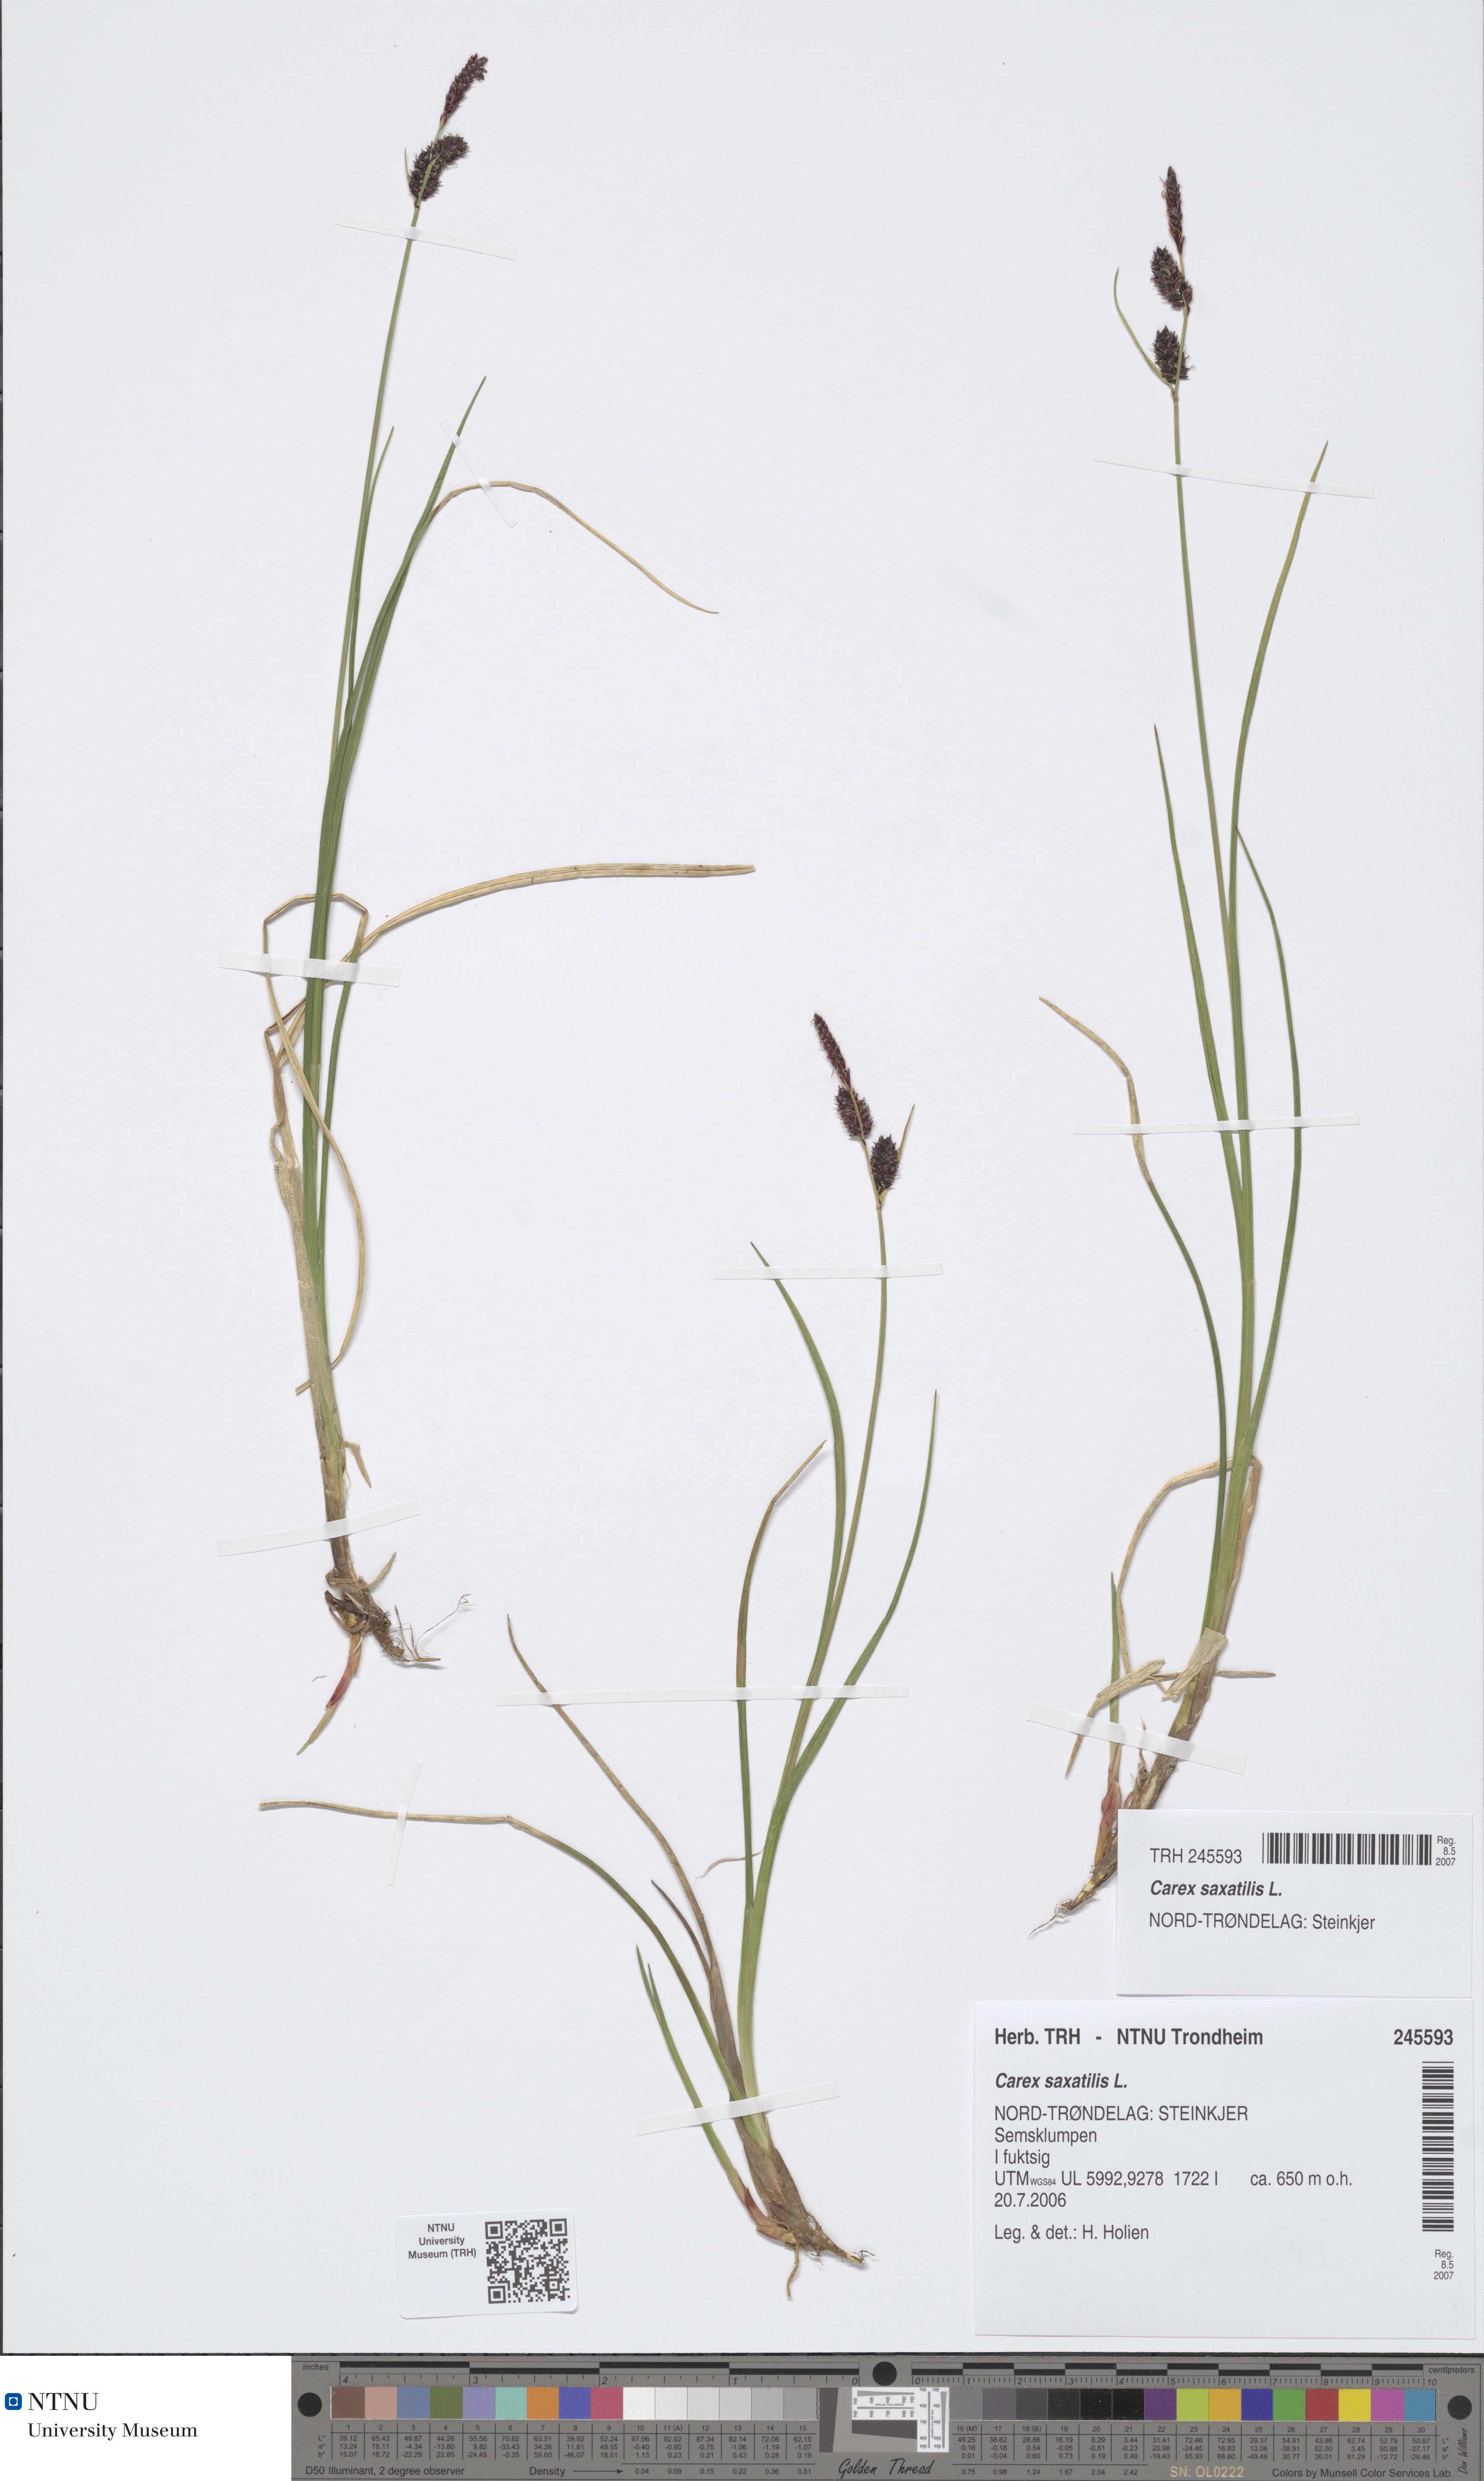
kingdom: Plantae
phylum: Tracheophyta
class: Liliopsida
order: Poales
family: Cyperaceae
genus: Carex
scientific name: Carex saxatilis
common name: Russet sedge
